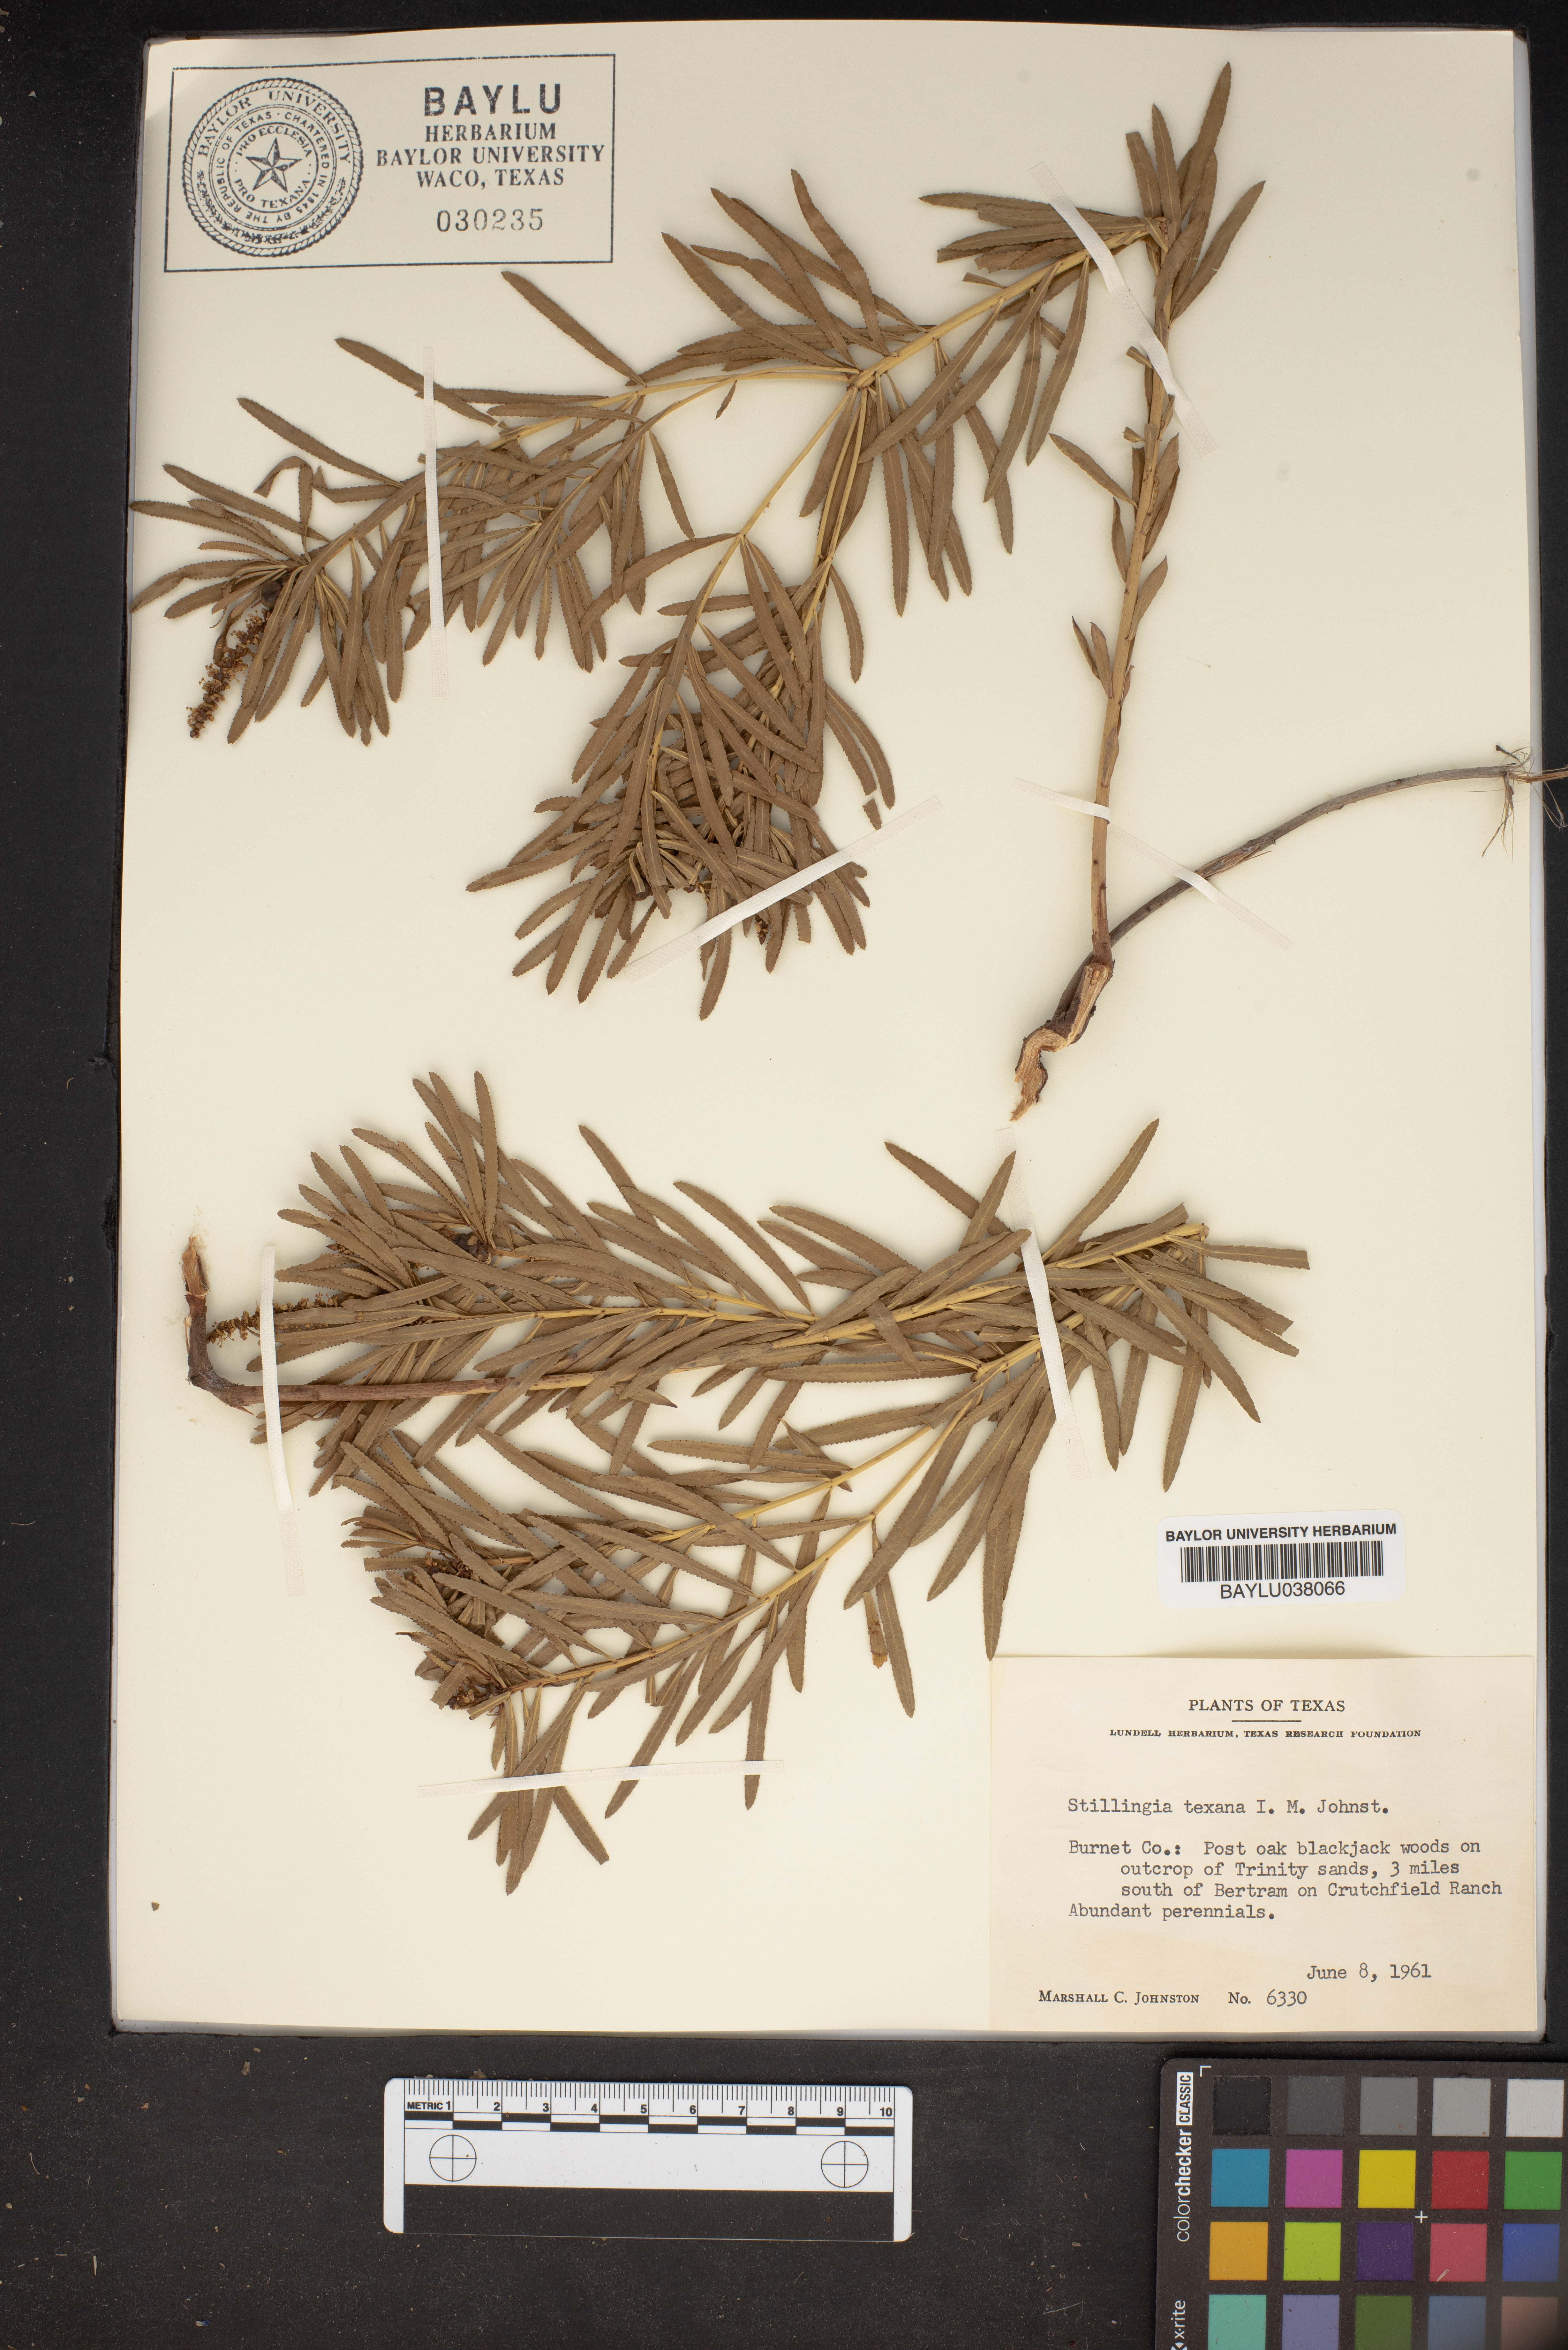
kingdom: Plantae
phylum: Tracheophyta
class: Magnoliopsida
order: Malpighiales
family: Euphorbiaceae
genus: Stillingia
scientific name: Stillingia texana
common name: Texas stillingia
